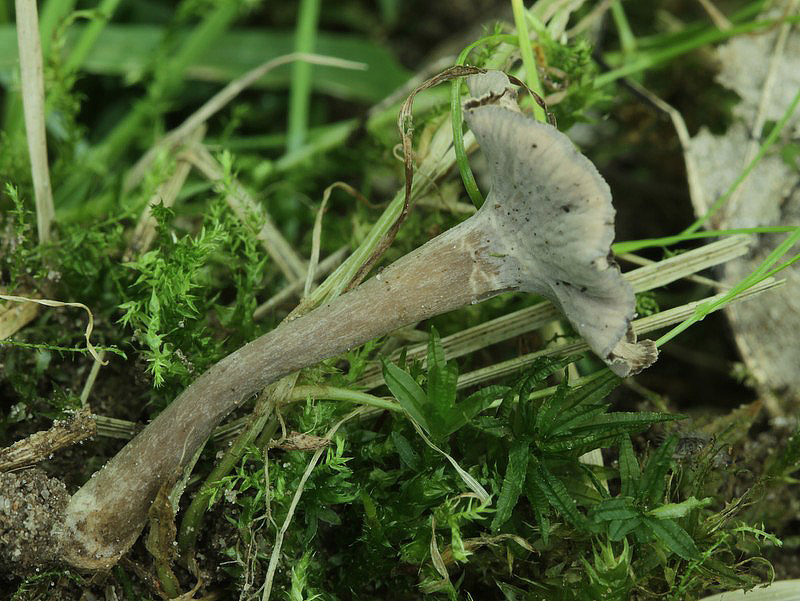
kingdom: Fungi
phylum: Basidiomycota
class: Agaricomycetes
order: Cantharellales
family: Hydnaceae
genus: Craterellus
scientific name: Craterellus undulatus
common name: liden kantarel
